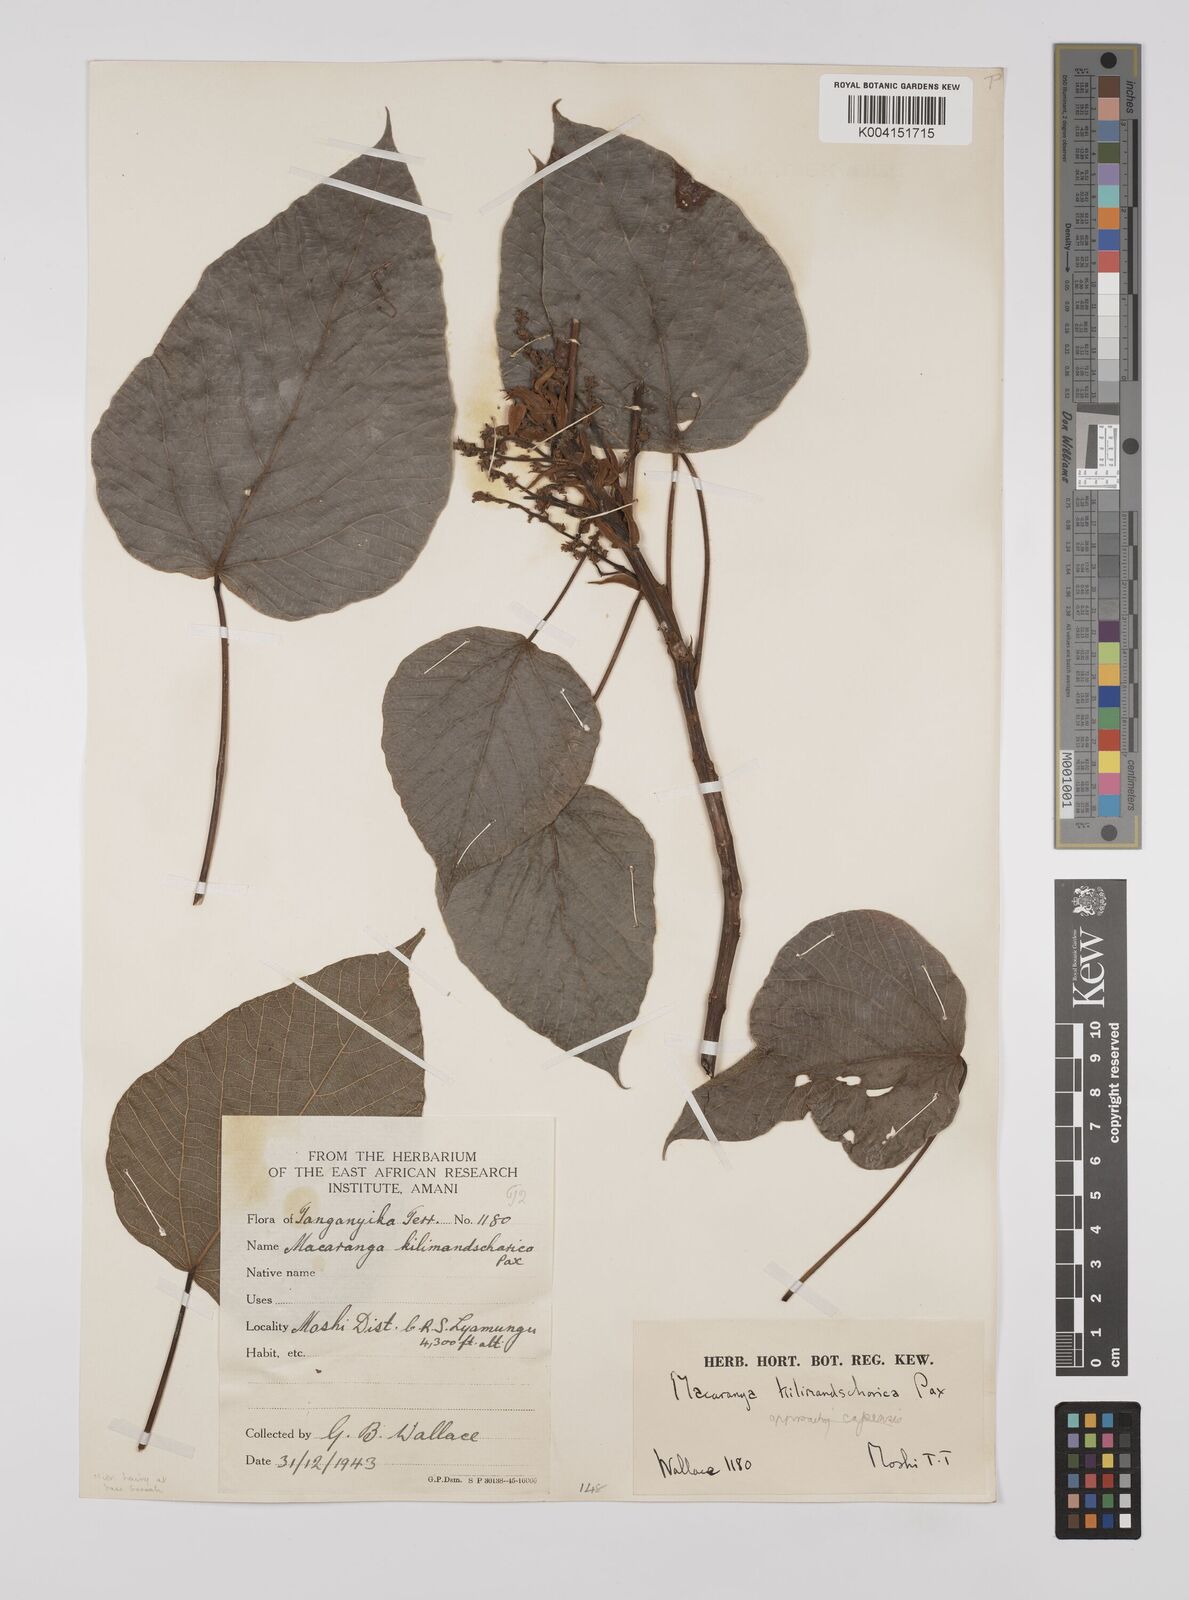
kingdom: Plantae
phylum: Tracheophyta
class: Magnoliopsida
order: Malpighiales
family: Euphorbiaceae
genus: Macaranga
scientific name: Macaranga kilimandscharica
